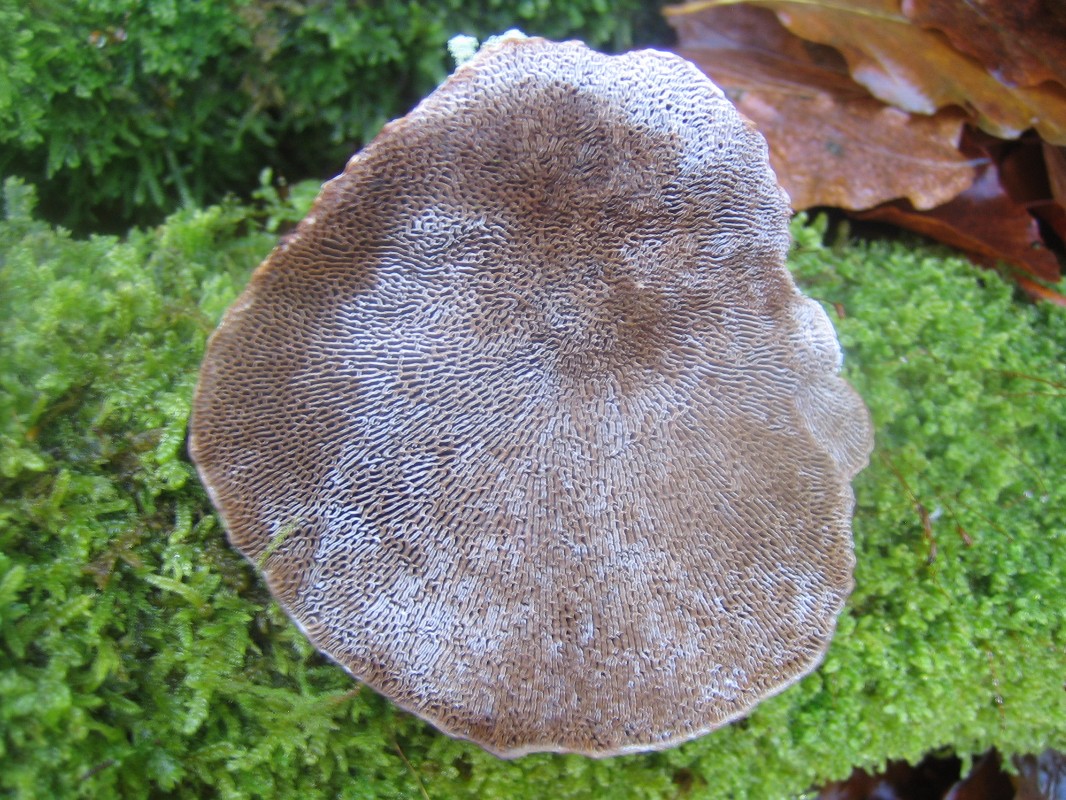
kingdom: Fungi
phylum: Basidiomycota
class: Agaricomycetes
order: Polyporales
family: Polyporaceae
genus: Daedaleopsis
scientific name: Daedaleopsis confragosa
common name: rødmende læderporesvamp
